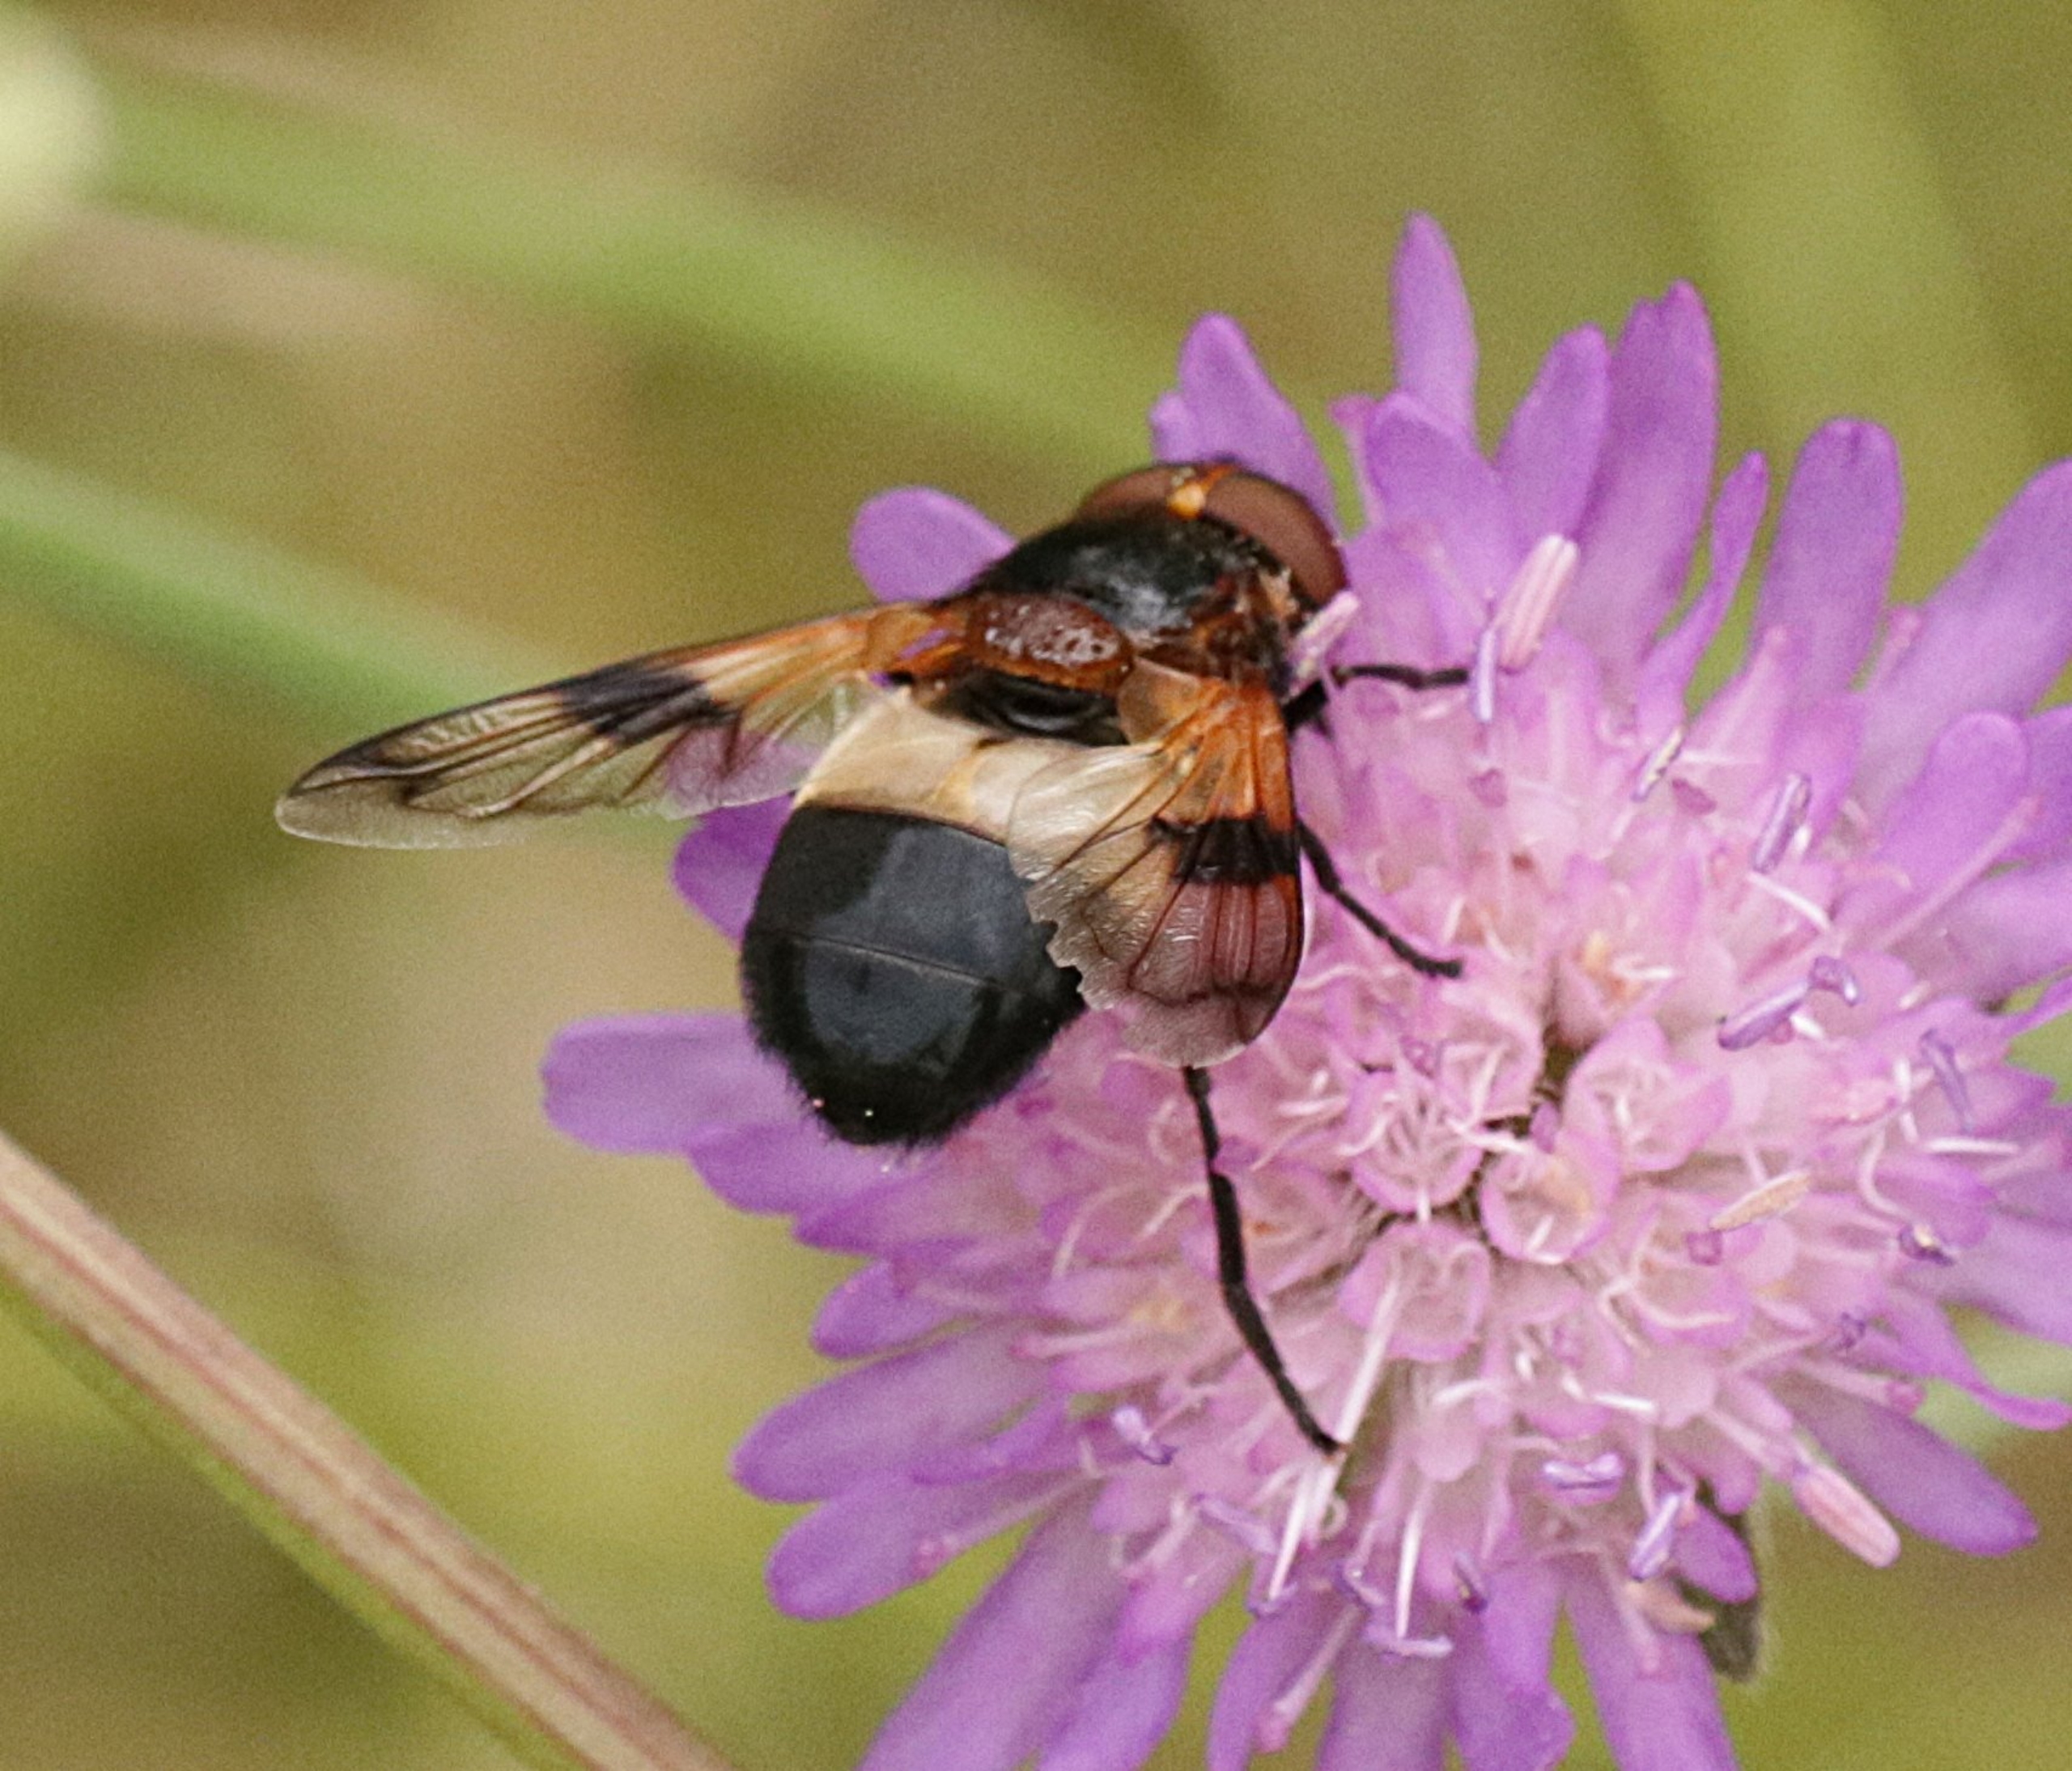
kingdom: Animalia
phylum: Arthropoda
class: Insecta
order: Diptera
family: Syrphidae
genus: Volucella
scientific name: Volucella pellucens
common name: Hvidbåndet humlesvirreflue
